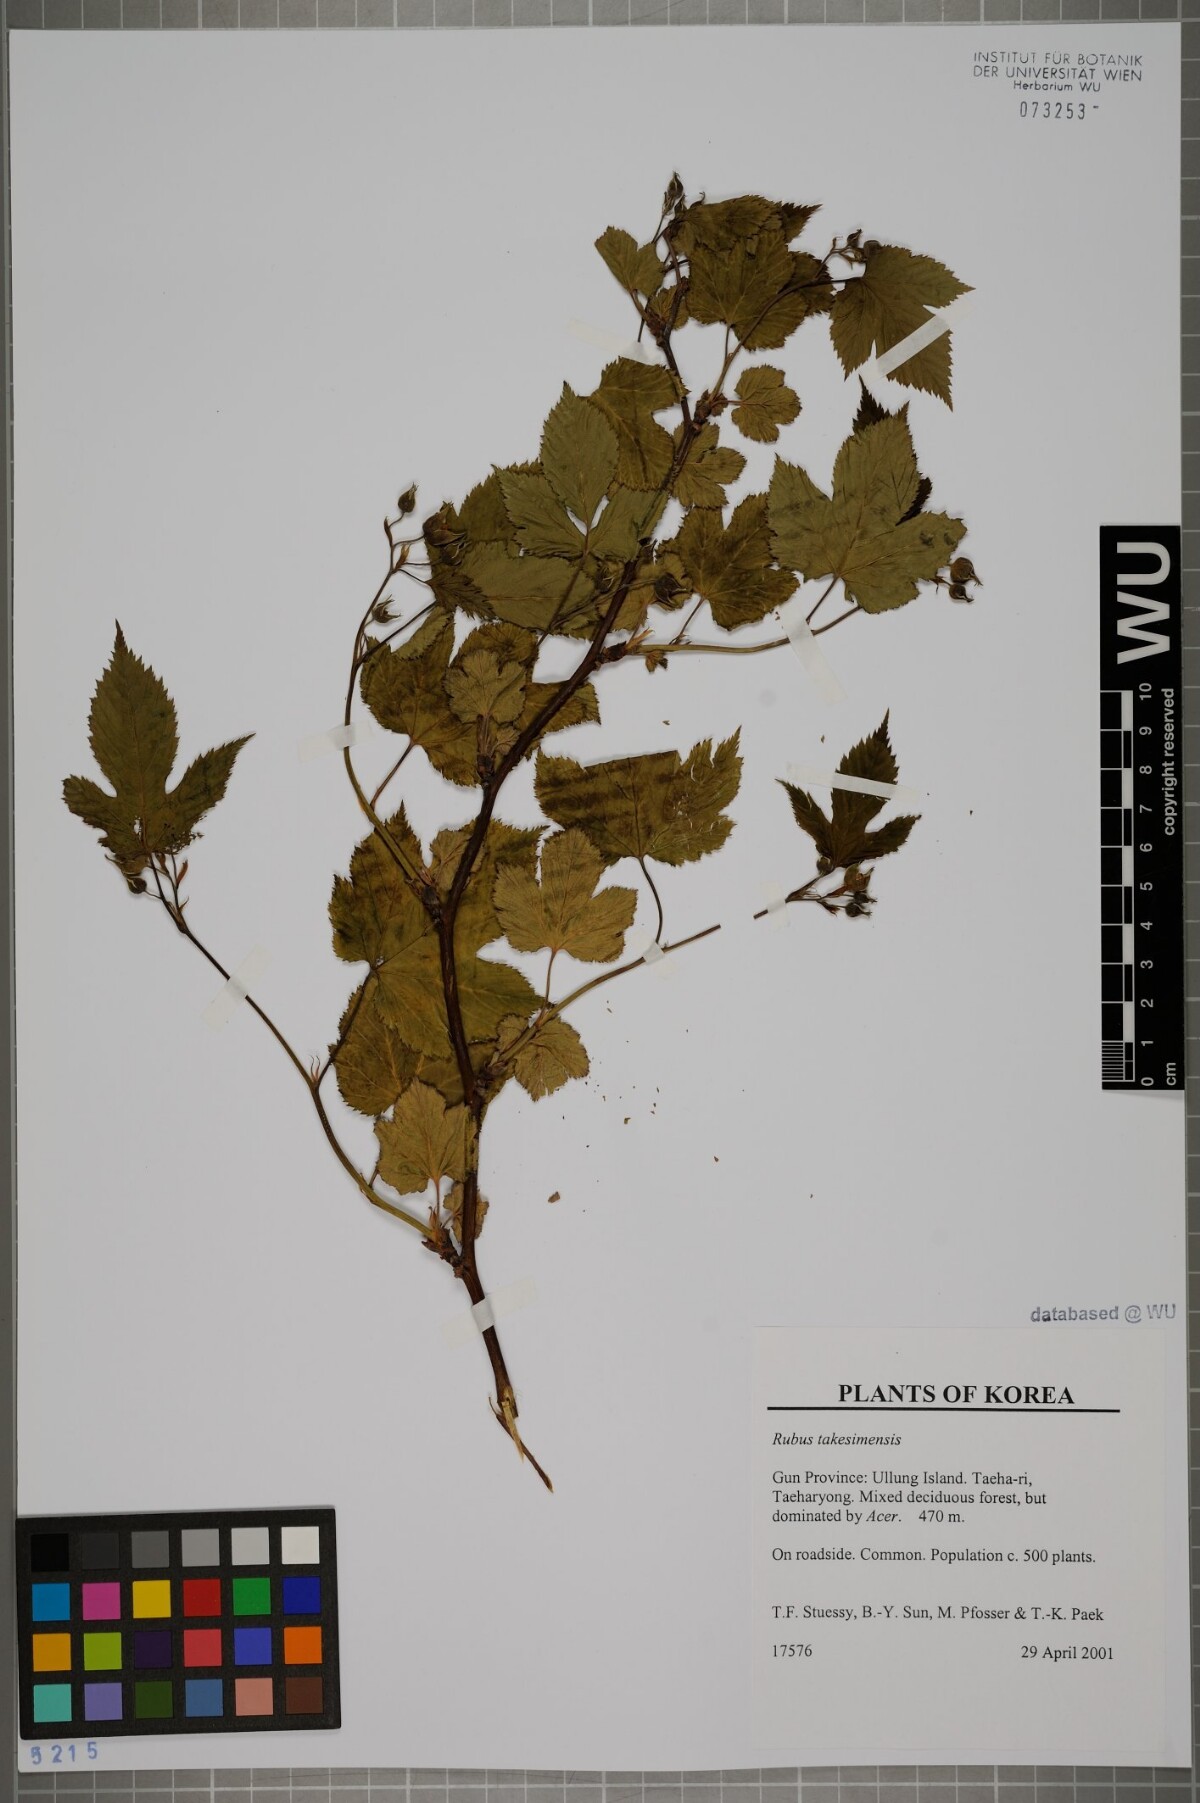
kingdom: Plantae
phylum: Tracheophyta
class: Magnoliopsida
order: Rosales
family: Rosaceae
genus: Rubus
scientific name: Rubus crataegifolius
